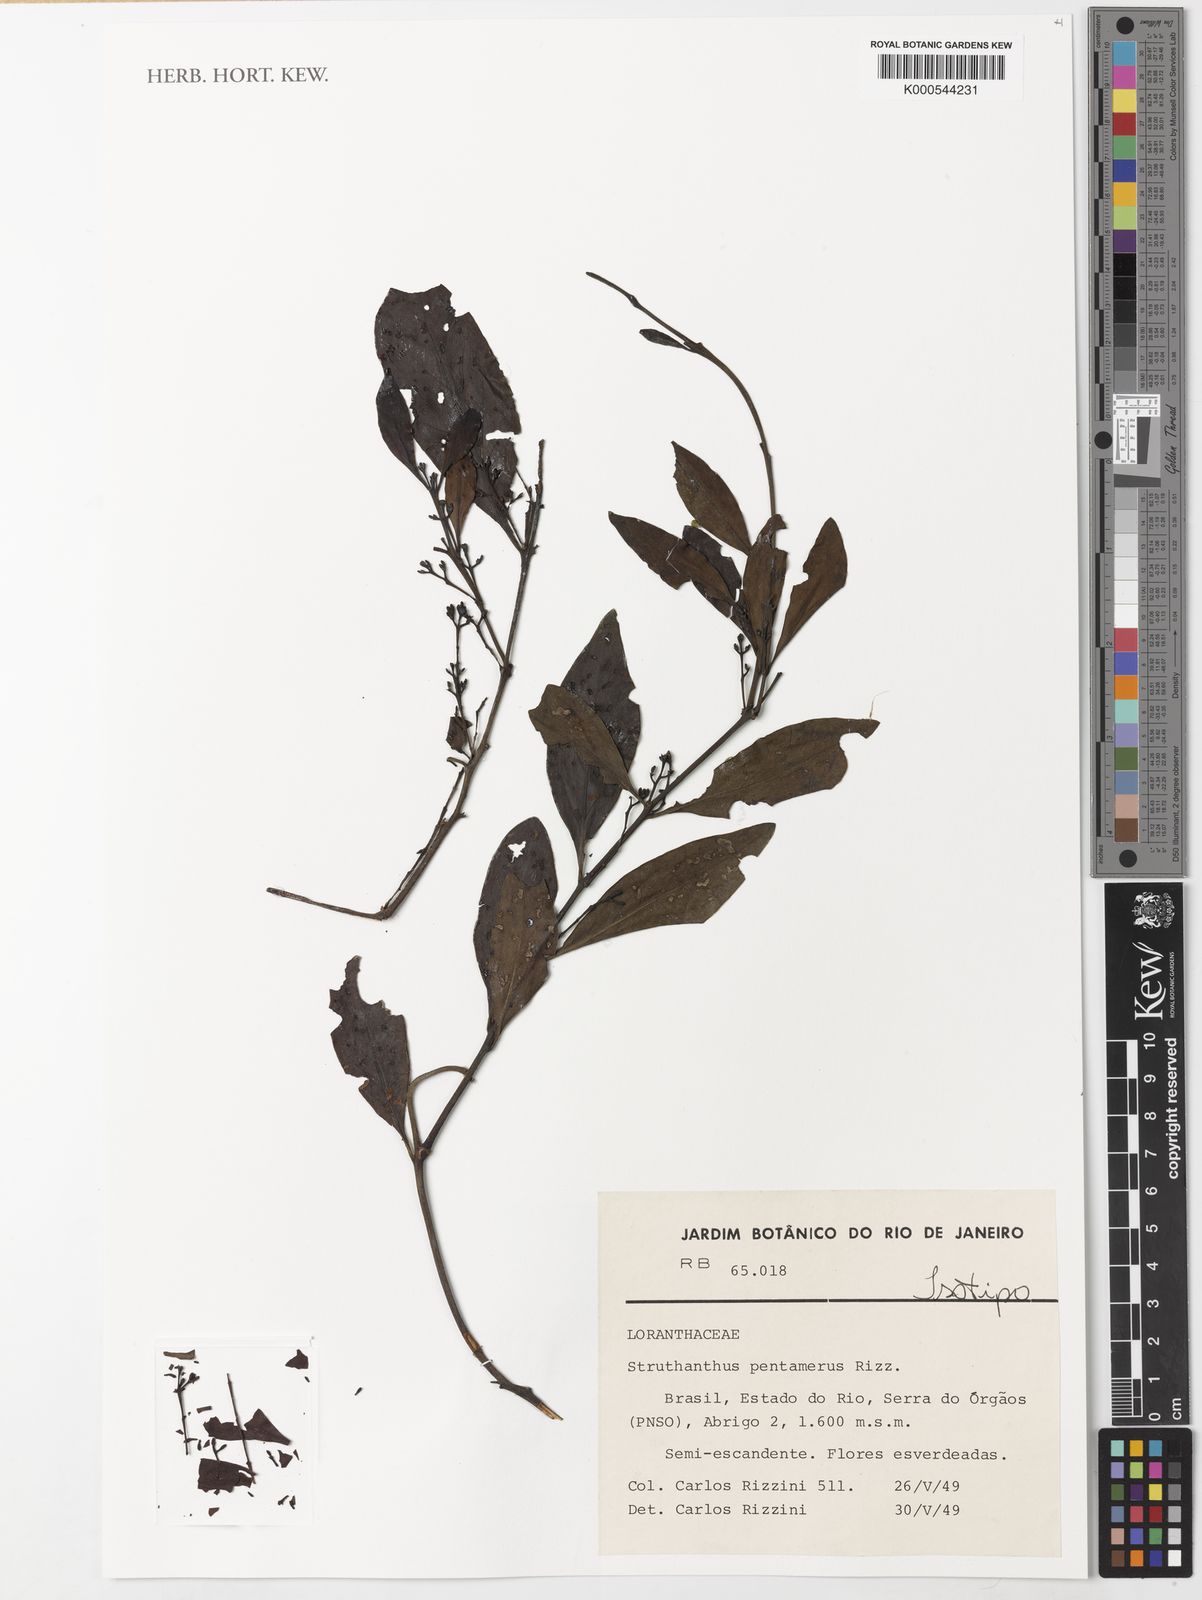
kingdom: Plantae
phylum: Tracheophyta
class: Magnoliopsida
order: Santalales
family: Loranthaceae
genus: Struthanthus
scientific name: Struthanthus pentamerus
